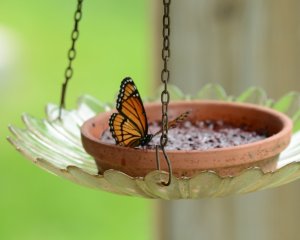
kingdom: Animalia
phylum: Arthropoda
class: Insecta
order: Lepidoptera
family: Nymphalidae
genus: Limenitis
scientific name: Limenitis archippus
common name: Viceroy
